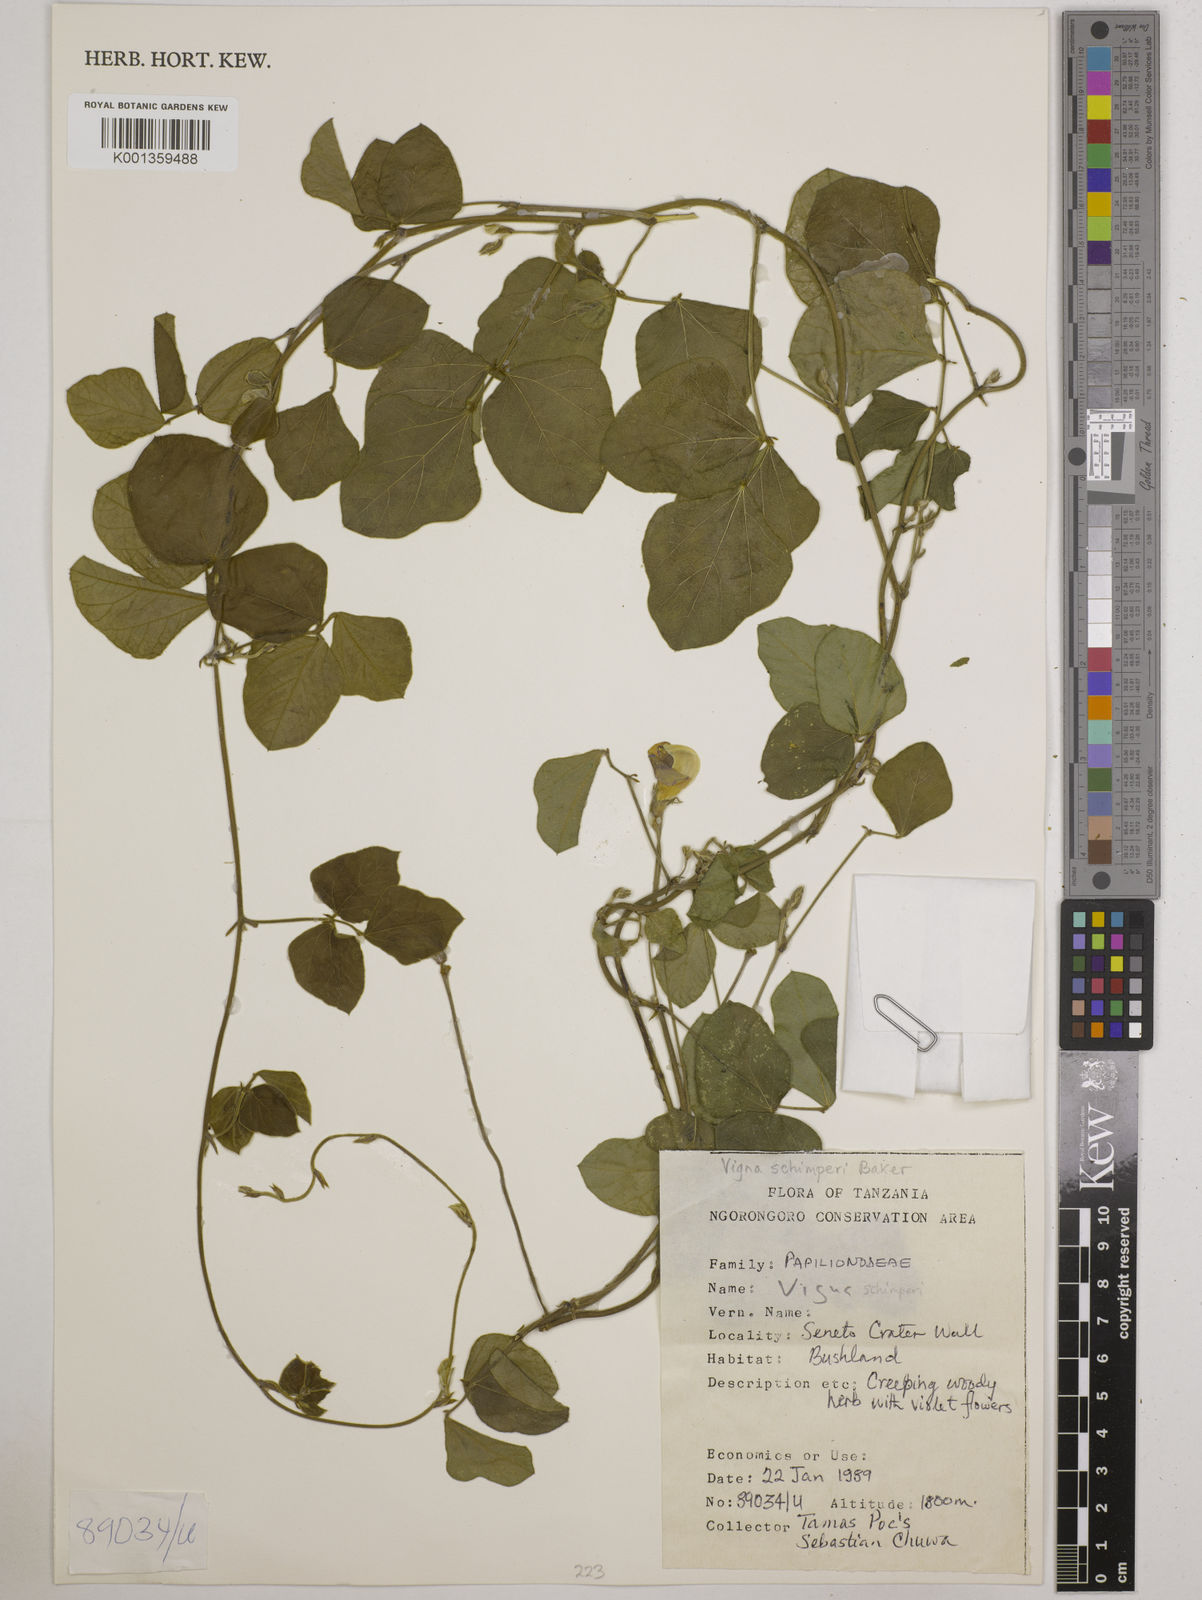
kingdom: Plantae
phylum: Tracheophyta
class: Magnoliopsida
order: Fabales
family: Fabaceae
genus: Vigna
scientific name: Vigna schimperi
